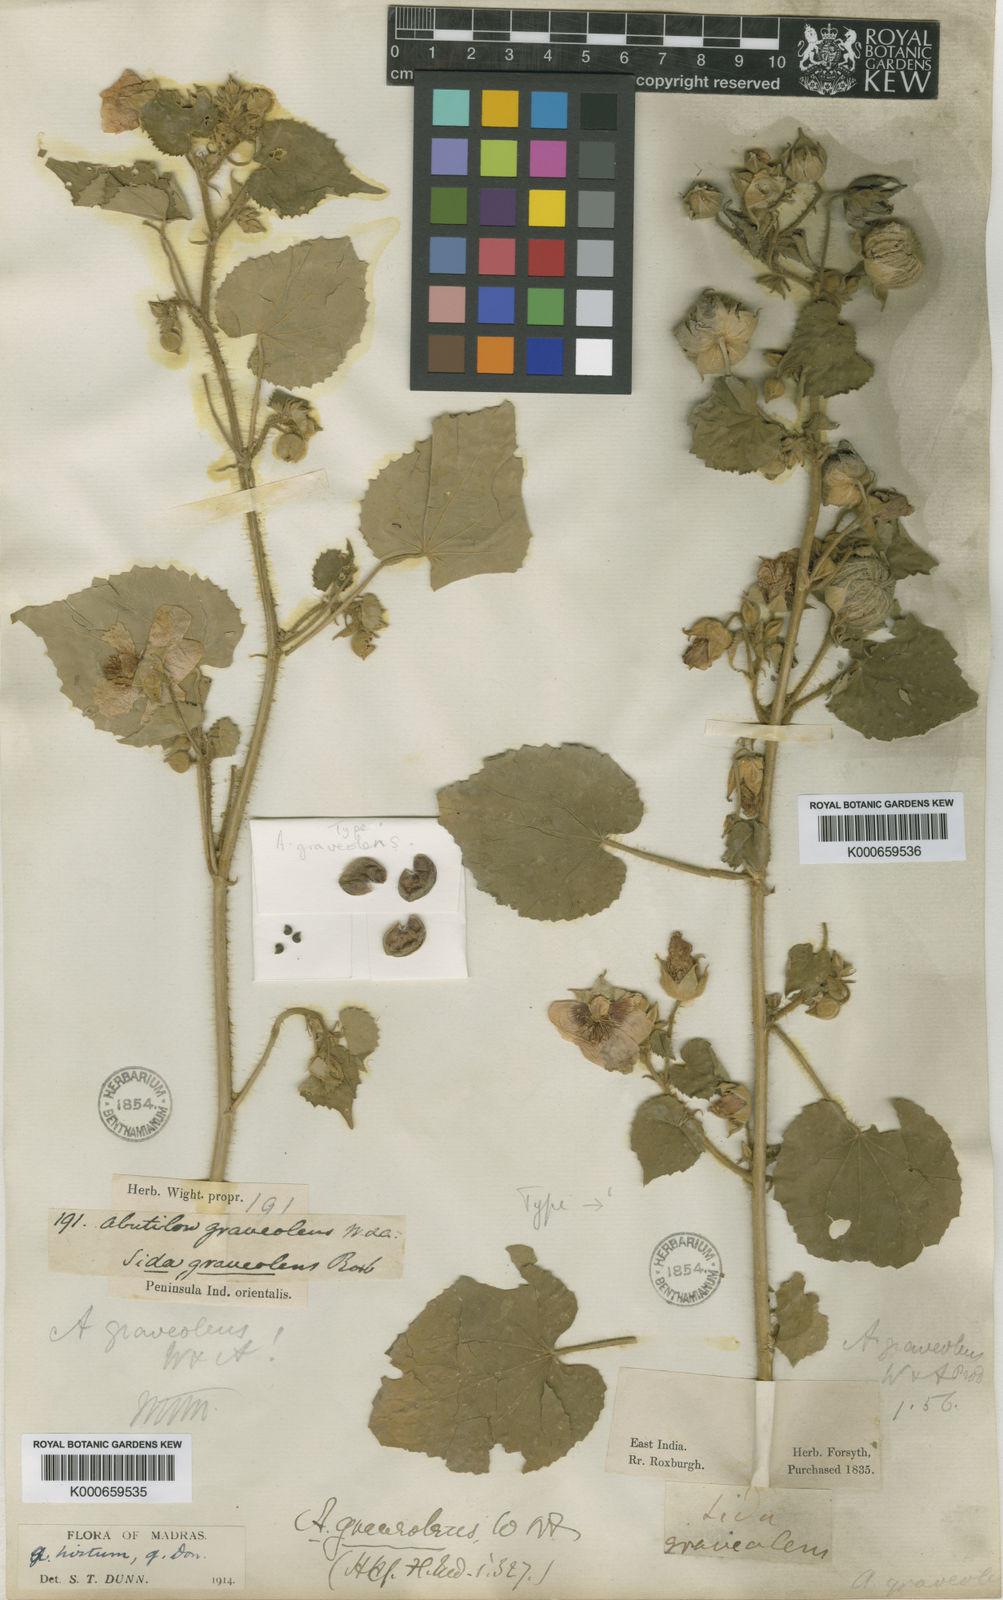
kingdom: Plantae
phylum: Tracheophyta
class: Magnoliopsida
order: Malvales
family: Malvaceae
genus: Abutilon
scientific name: Abutilon
